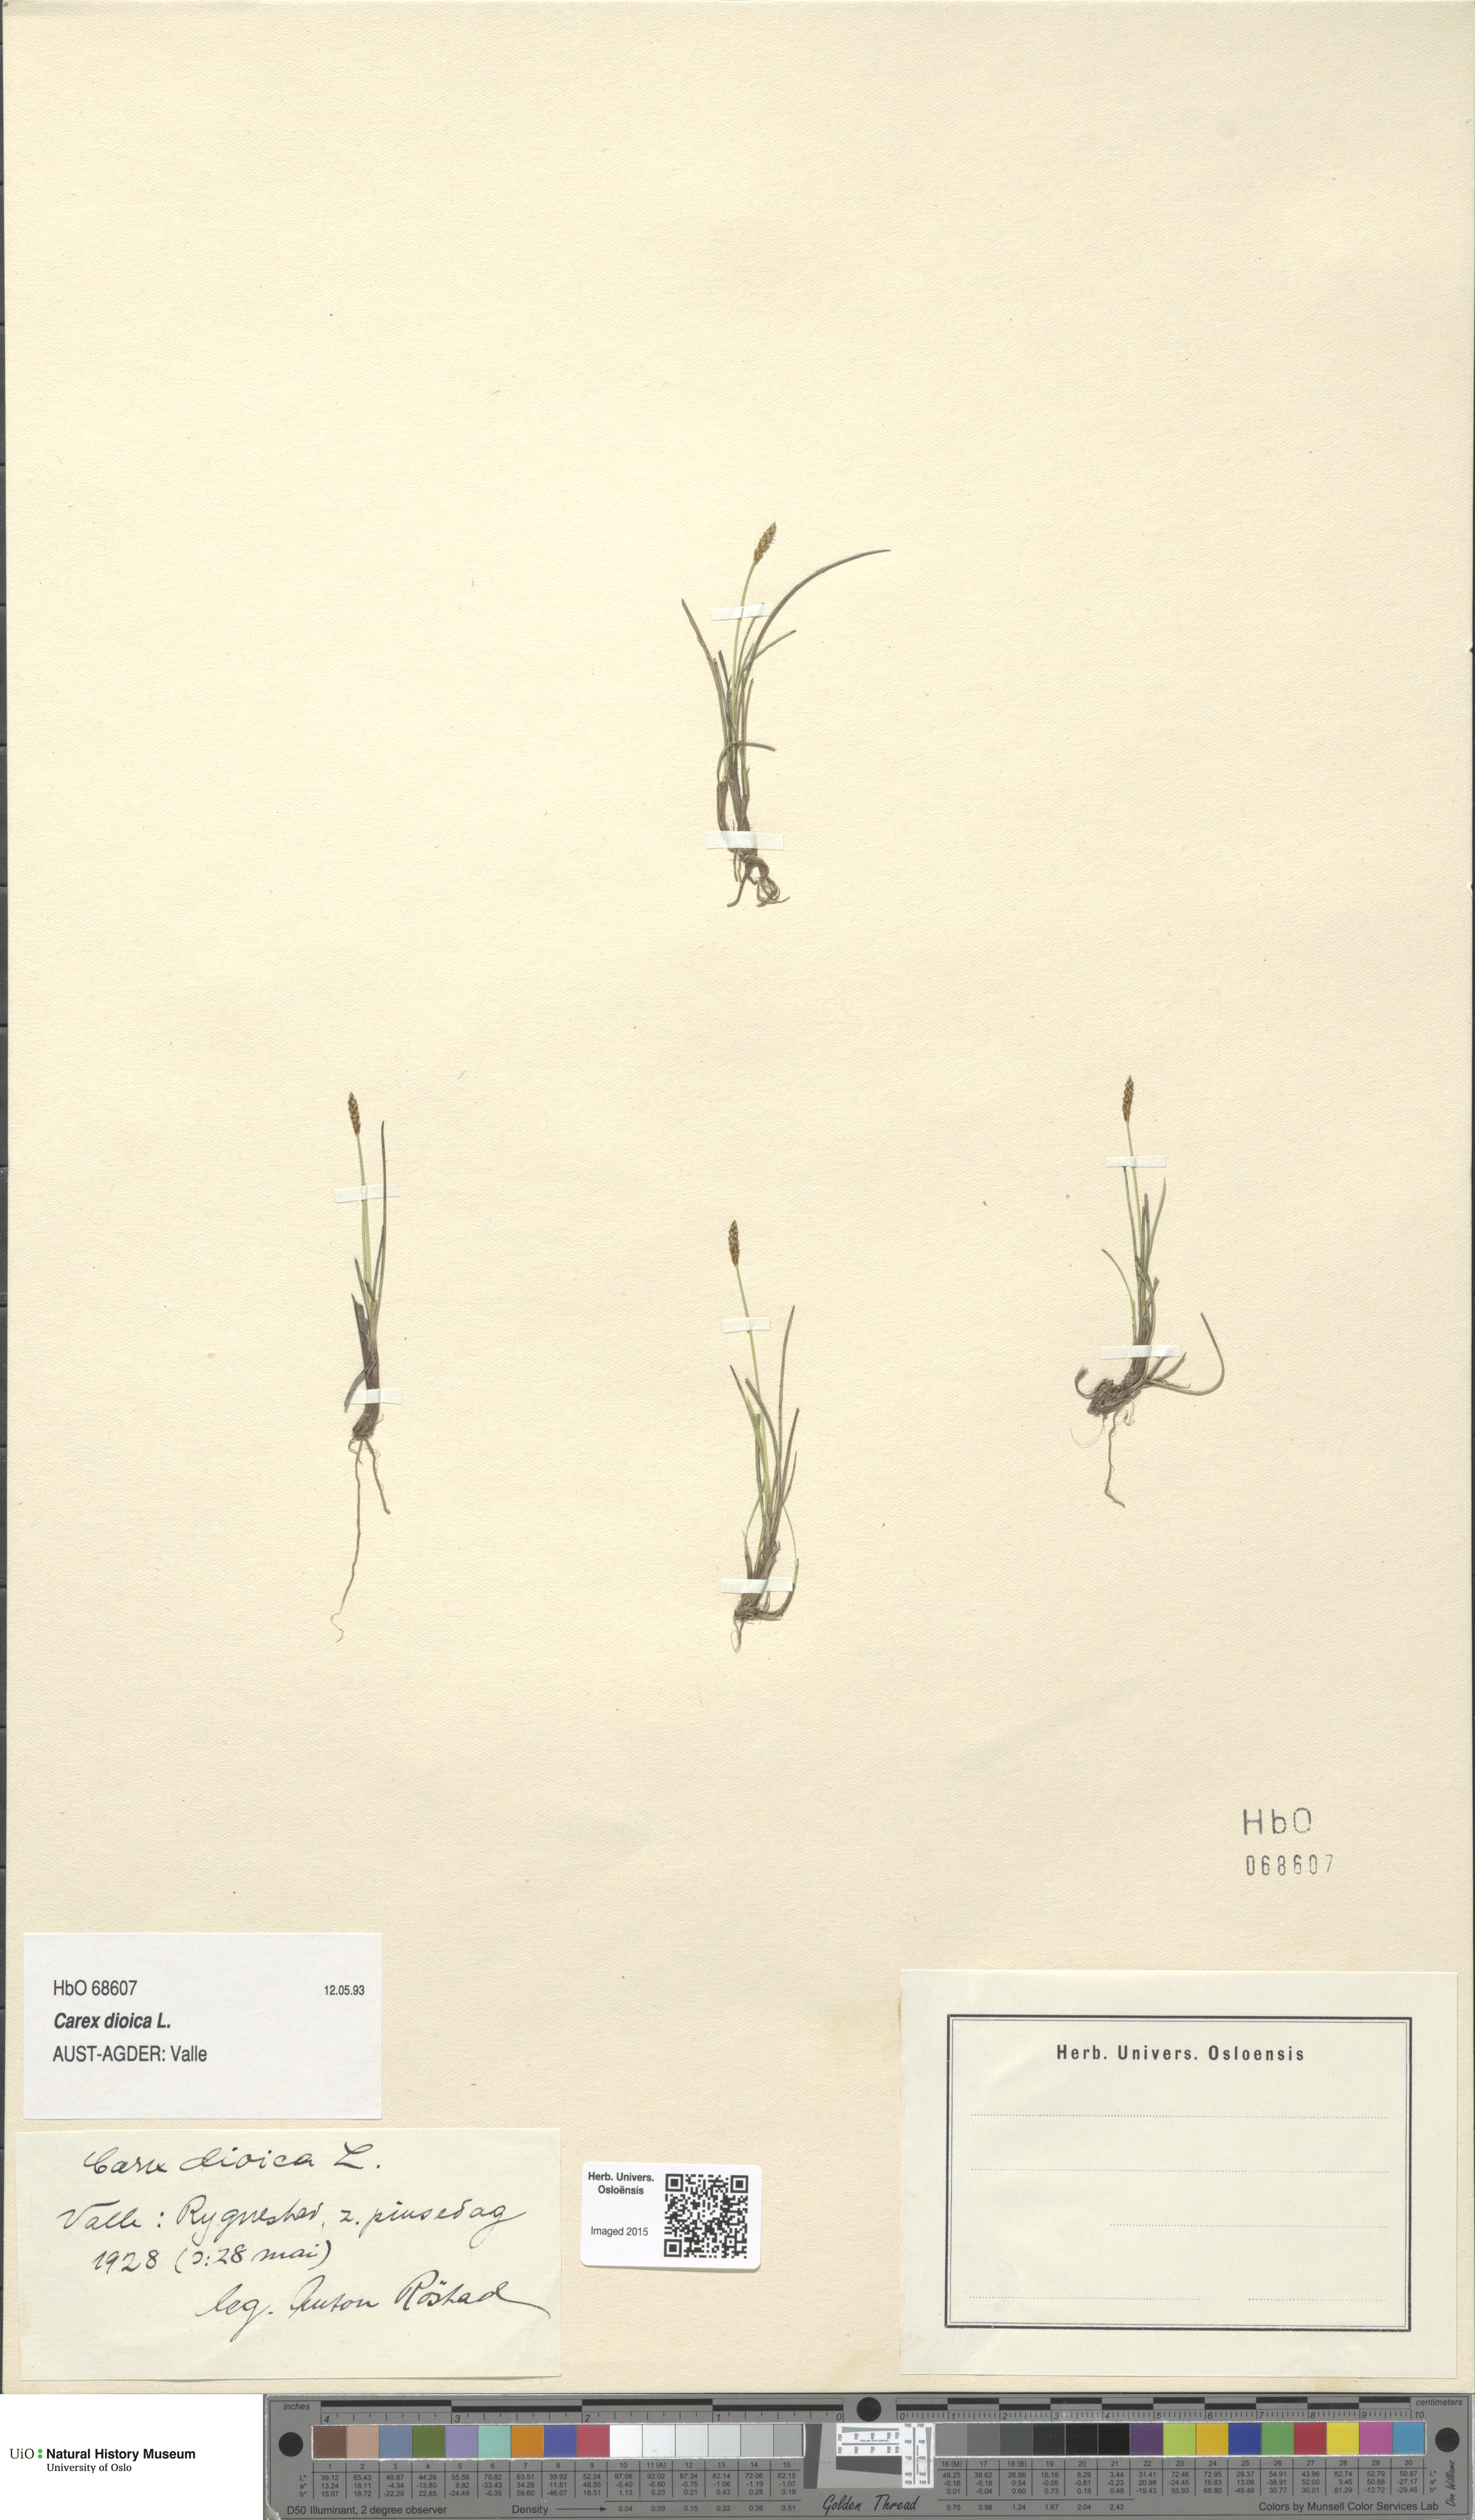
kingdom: Plantae
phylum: Tracheophyta
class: Liliopsida
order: Poales
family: Cyperaceae
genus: Carex
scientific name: Carex dioica
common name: Dioecious sedge
